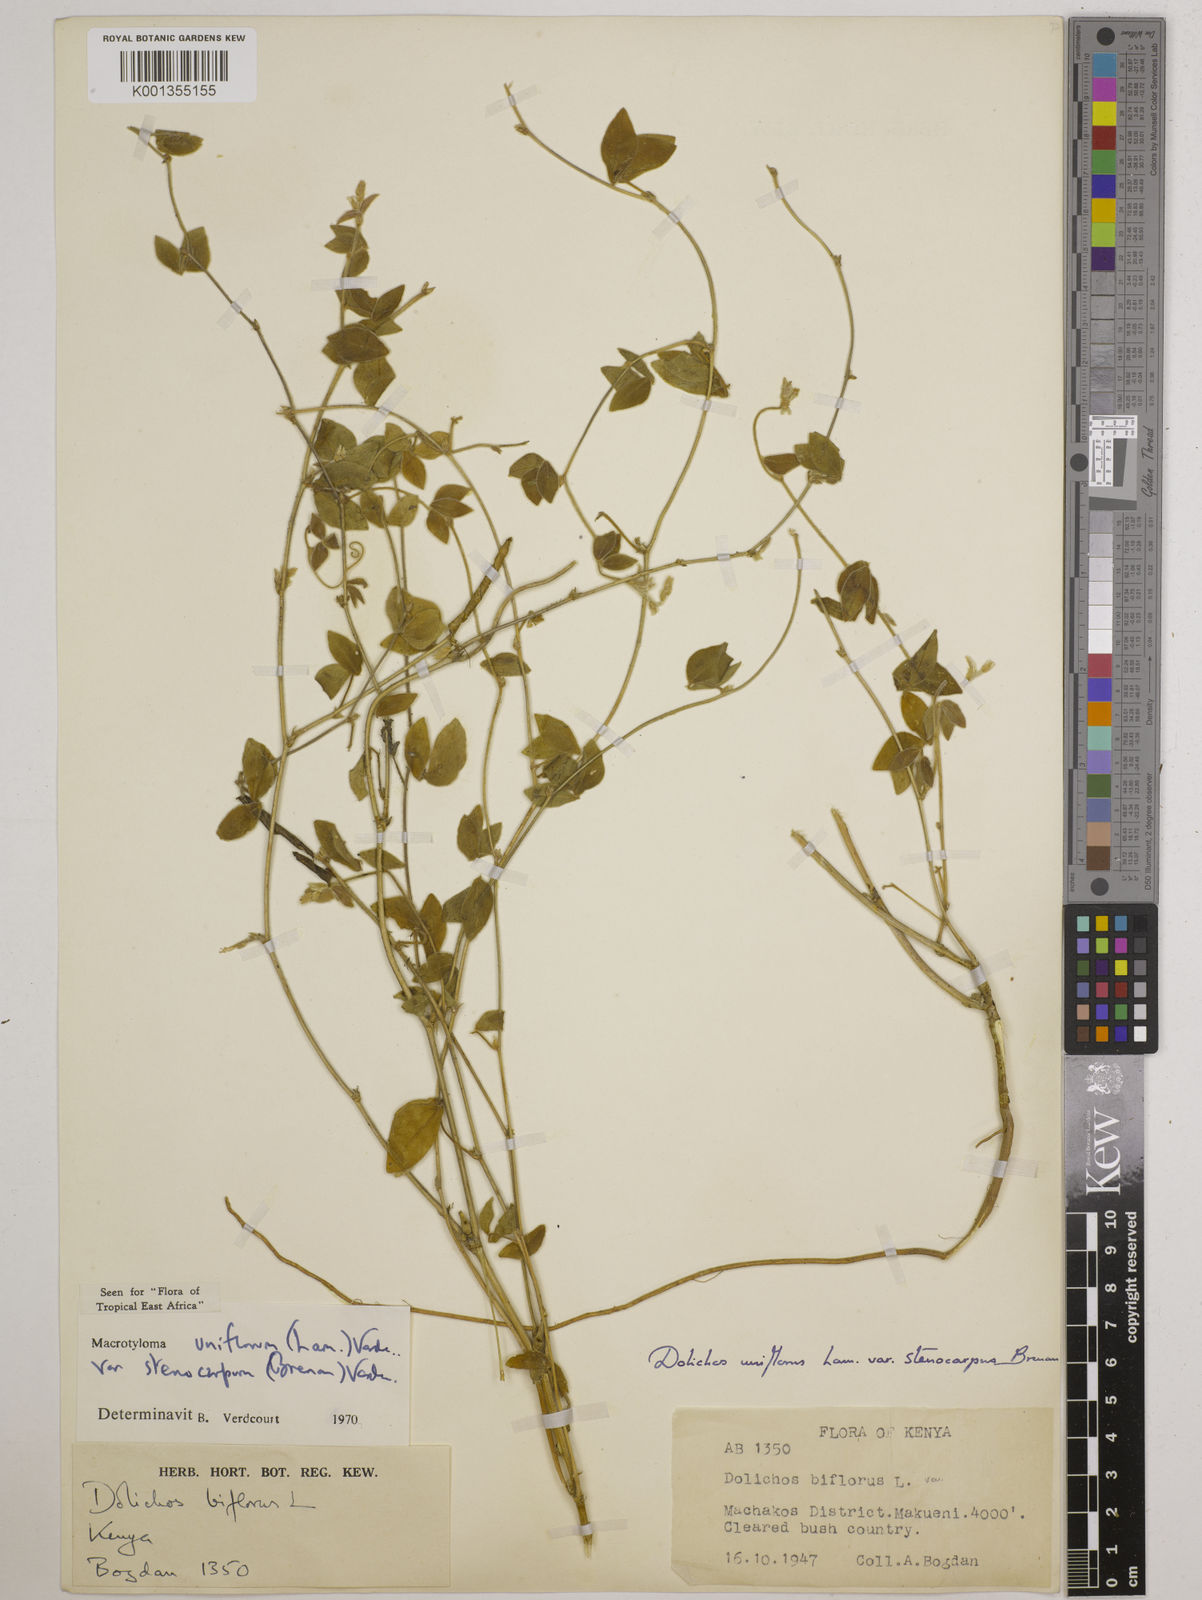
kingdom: Plantae
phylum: Tracheophyta
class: Magnoliopsida
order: Fabales
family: Fabaceae
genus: Macrotyloma
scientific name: Macrotyloma
